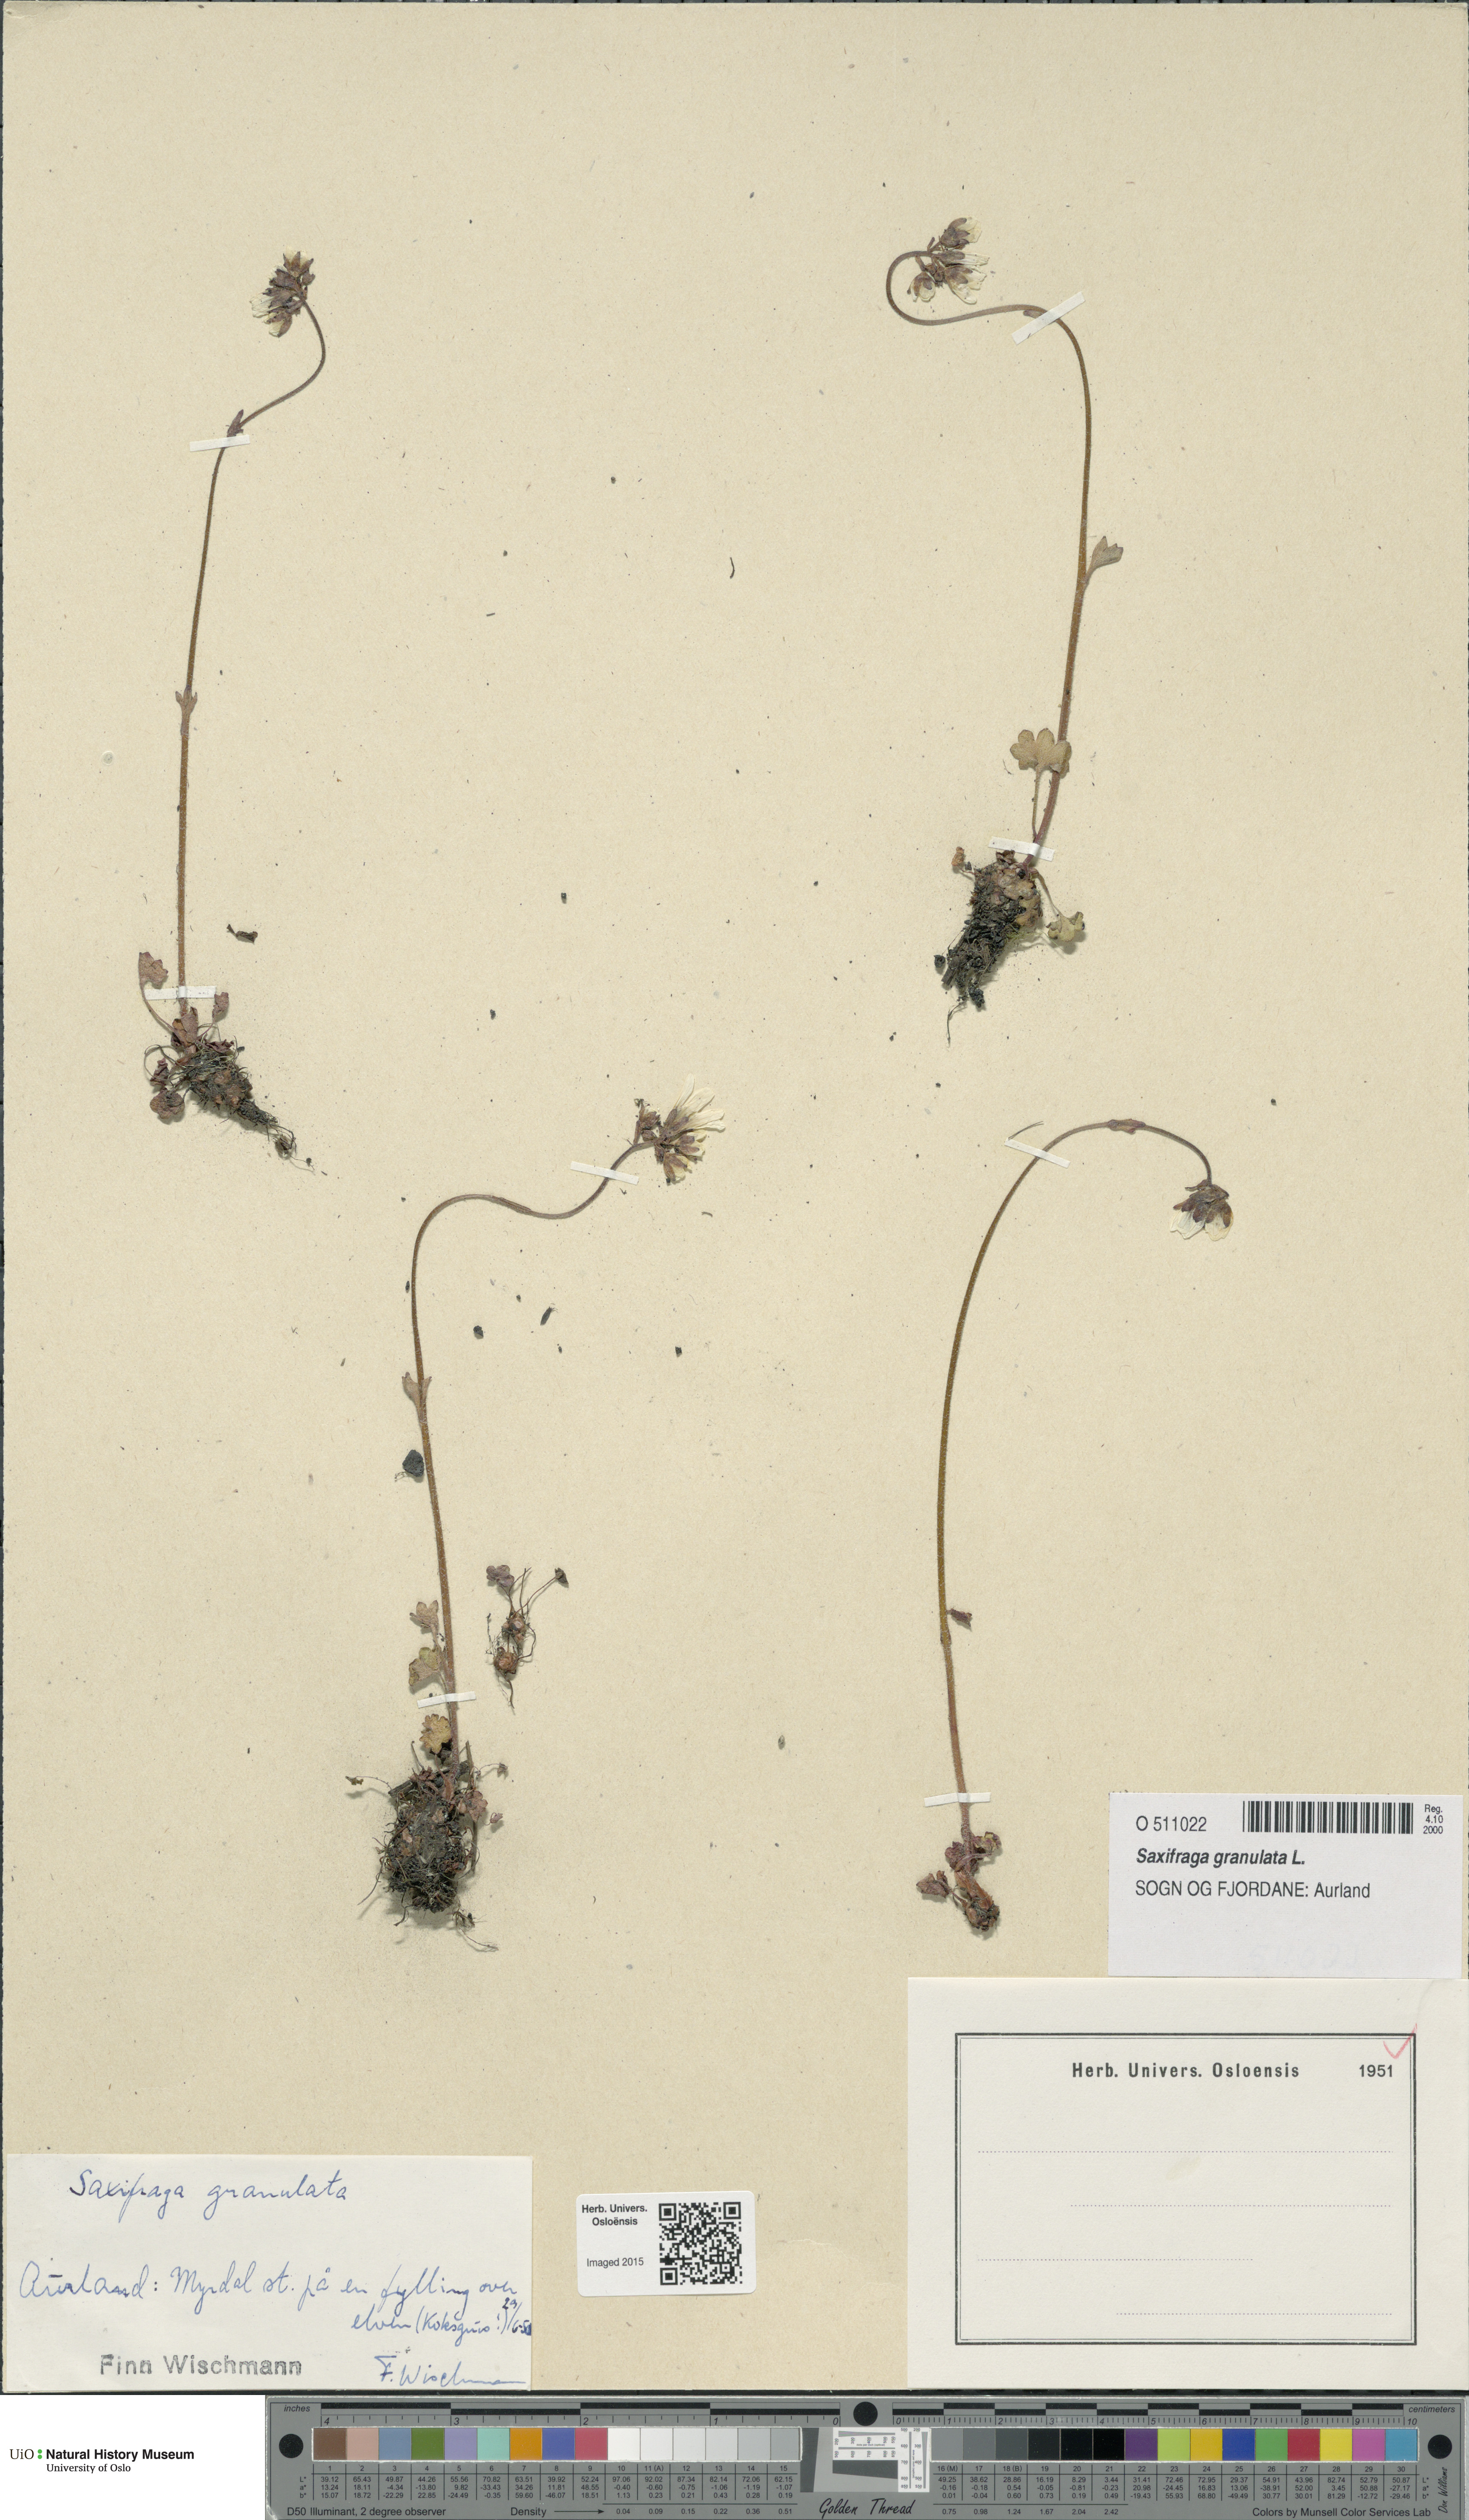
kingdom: Plantae
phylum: Tracheophyta
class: Magnoliopsida
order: Saxifragales
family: Saxifragaceae
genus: Saxifraga
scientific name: Saxifraga granulata
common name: Meadow saxifrage
